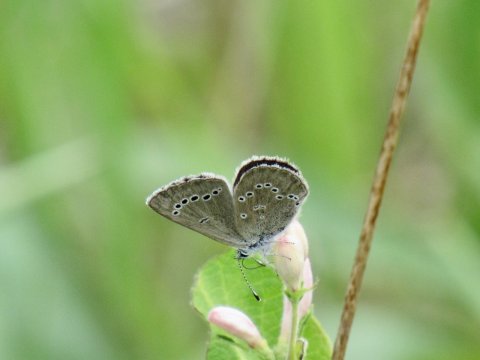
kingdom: Animalia
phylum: Arthropoda
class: Insecta
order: Lepidoptera
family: Lycaenidae
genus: Glaucopsyche
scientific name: Glaucopsyche lygdamus
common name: Silvery Blue
